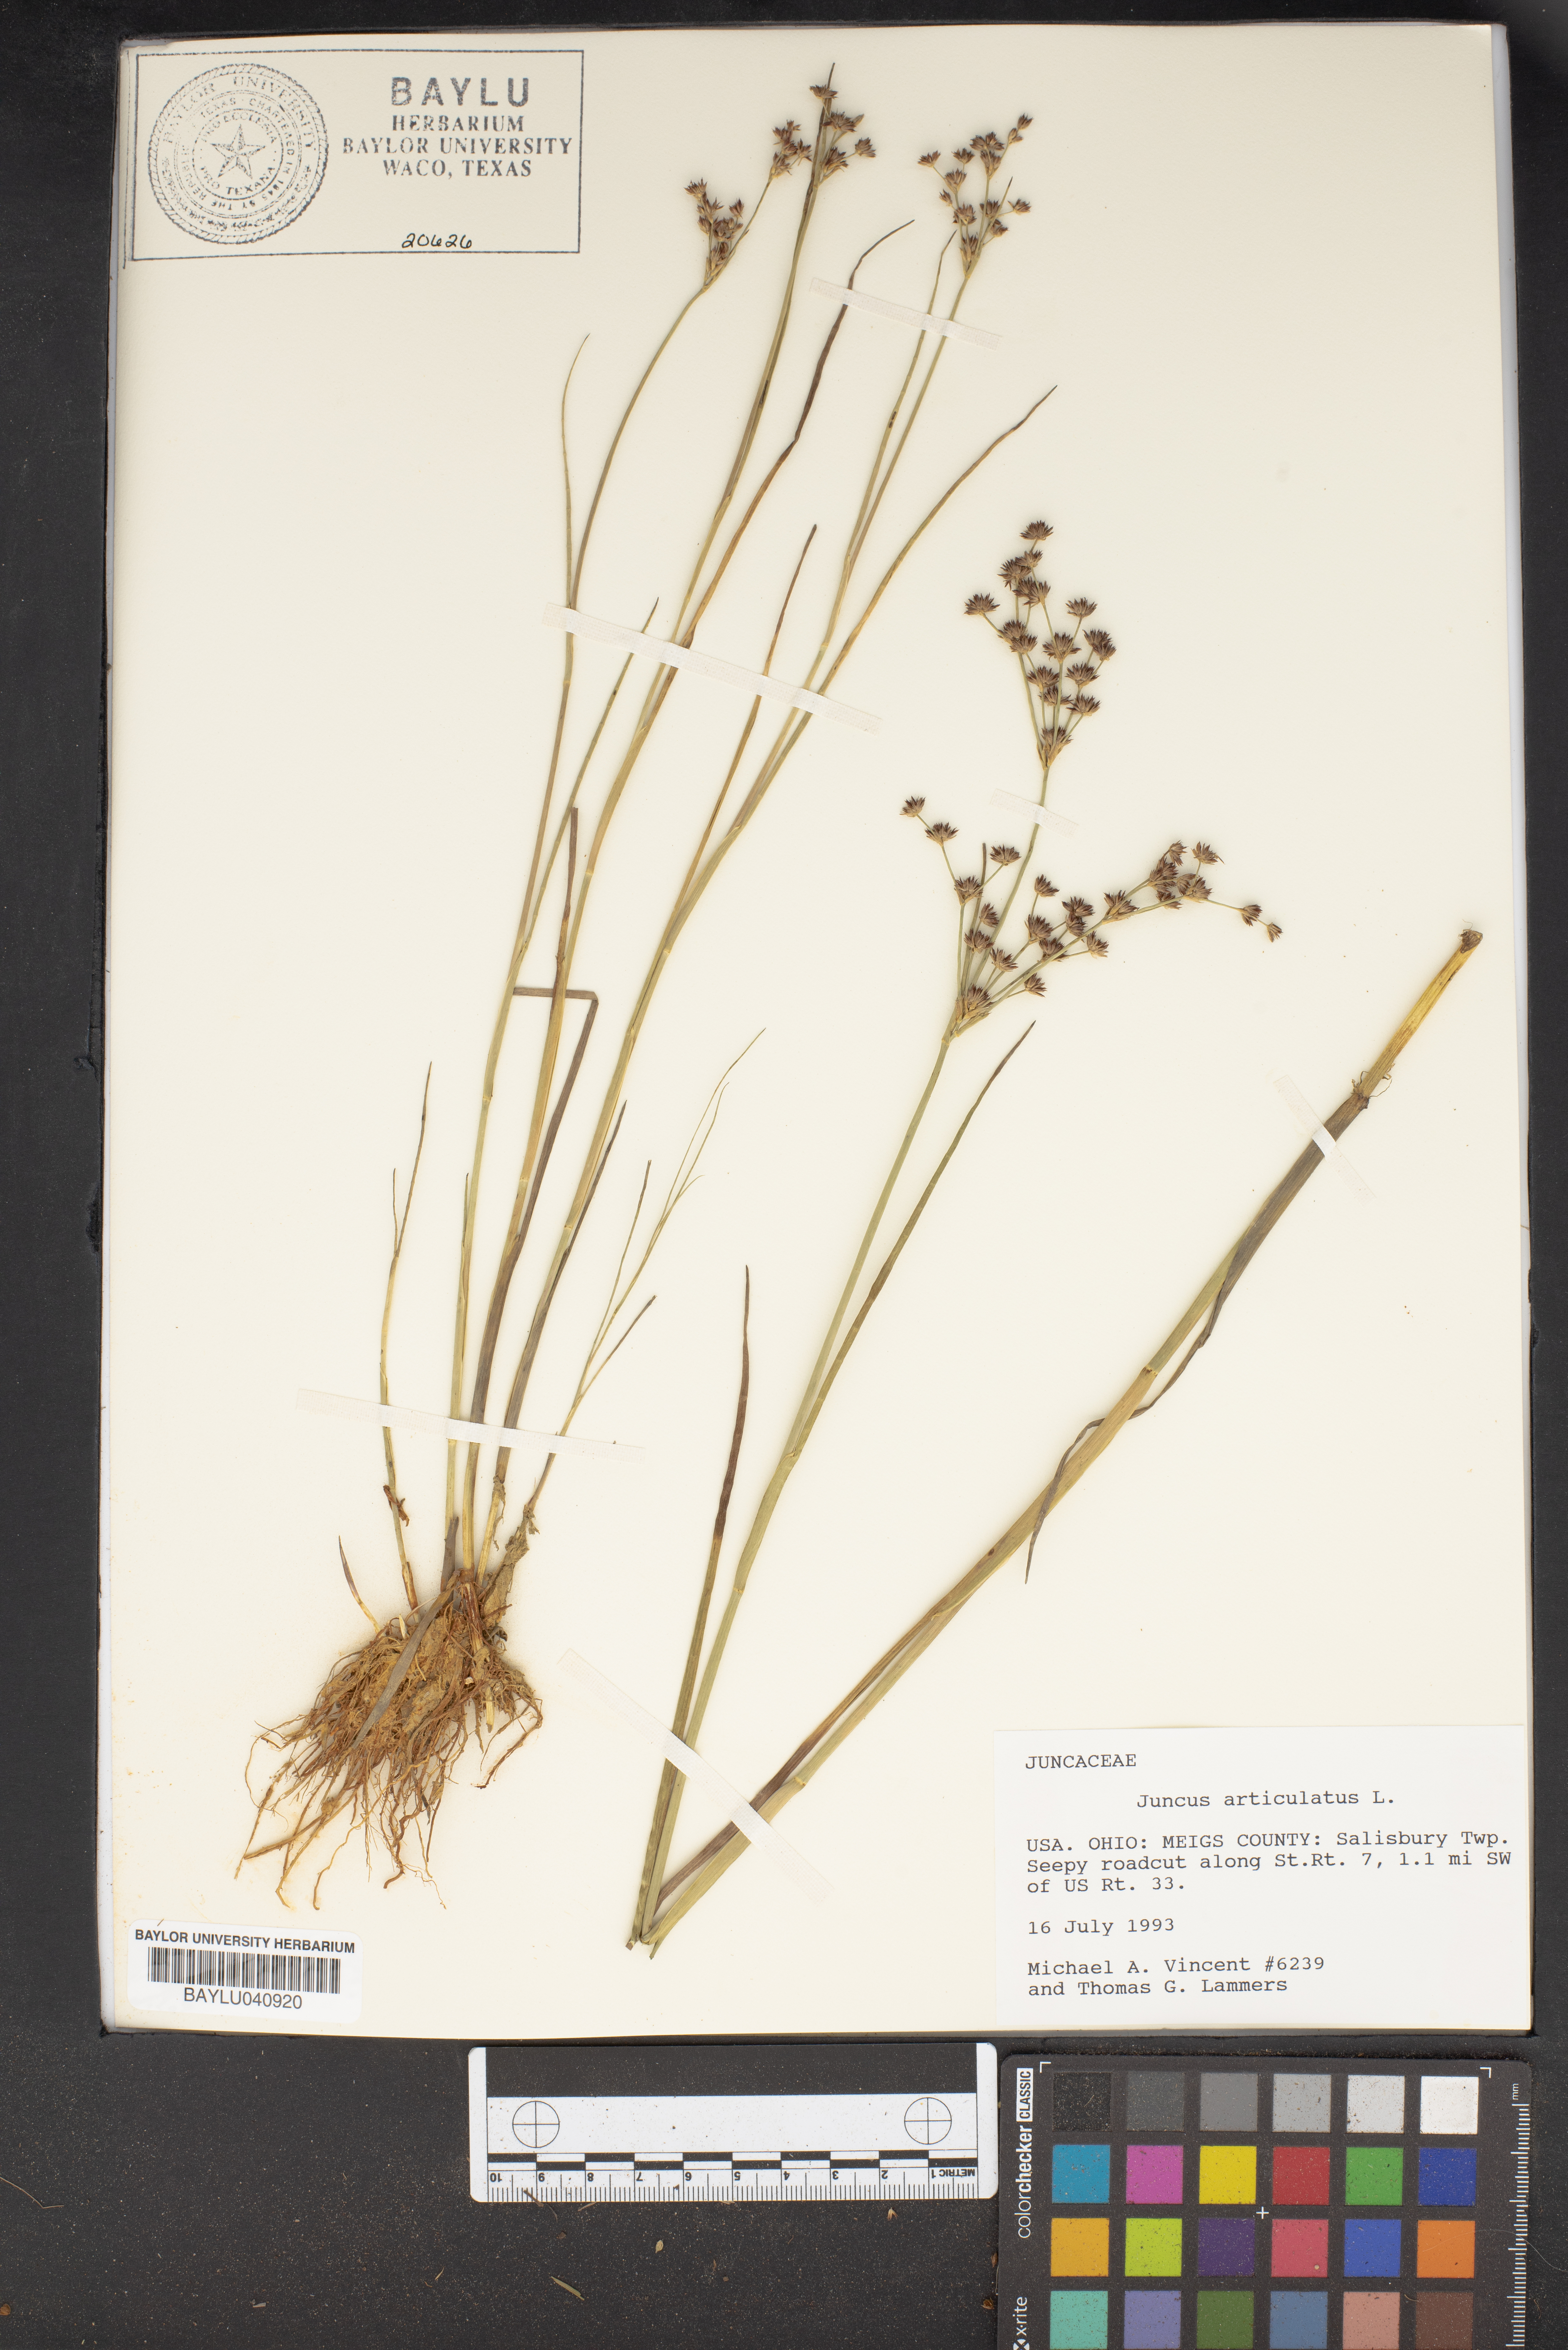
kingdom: Plantae
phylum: Tracheophyta
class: Liliopsida
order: Poales
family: Juncaceae
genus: Juncus
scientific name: Juncus articulatus
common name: Jointed rush
